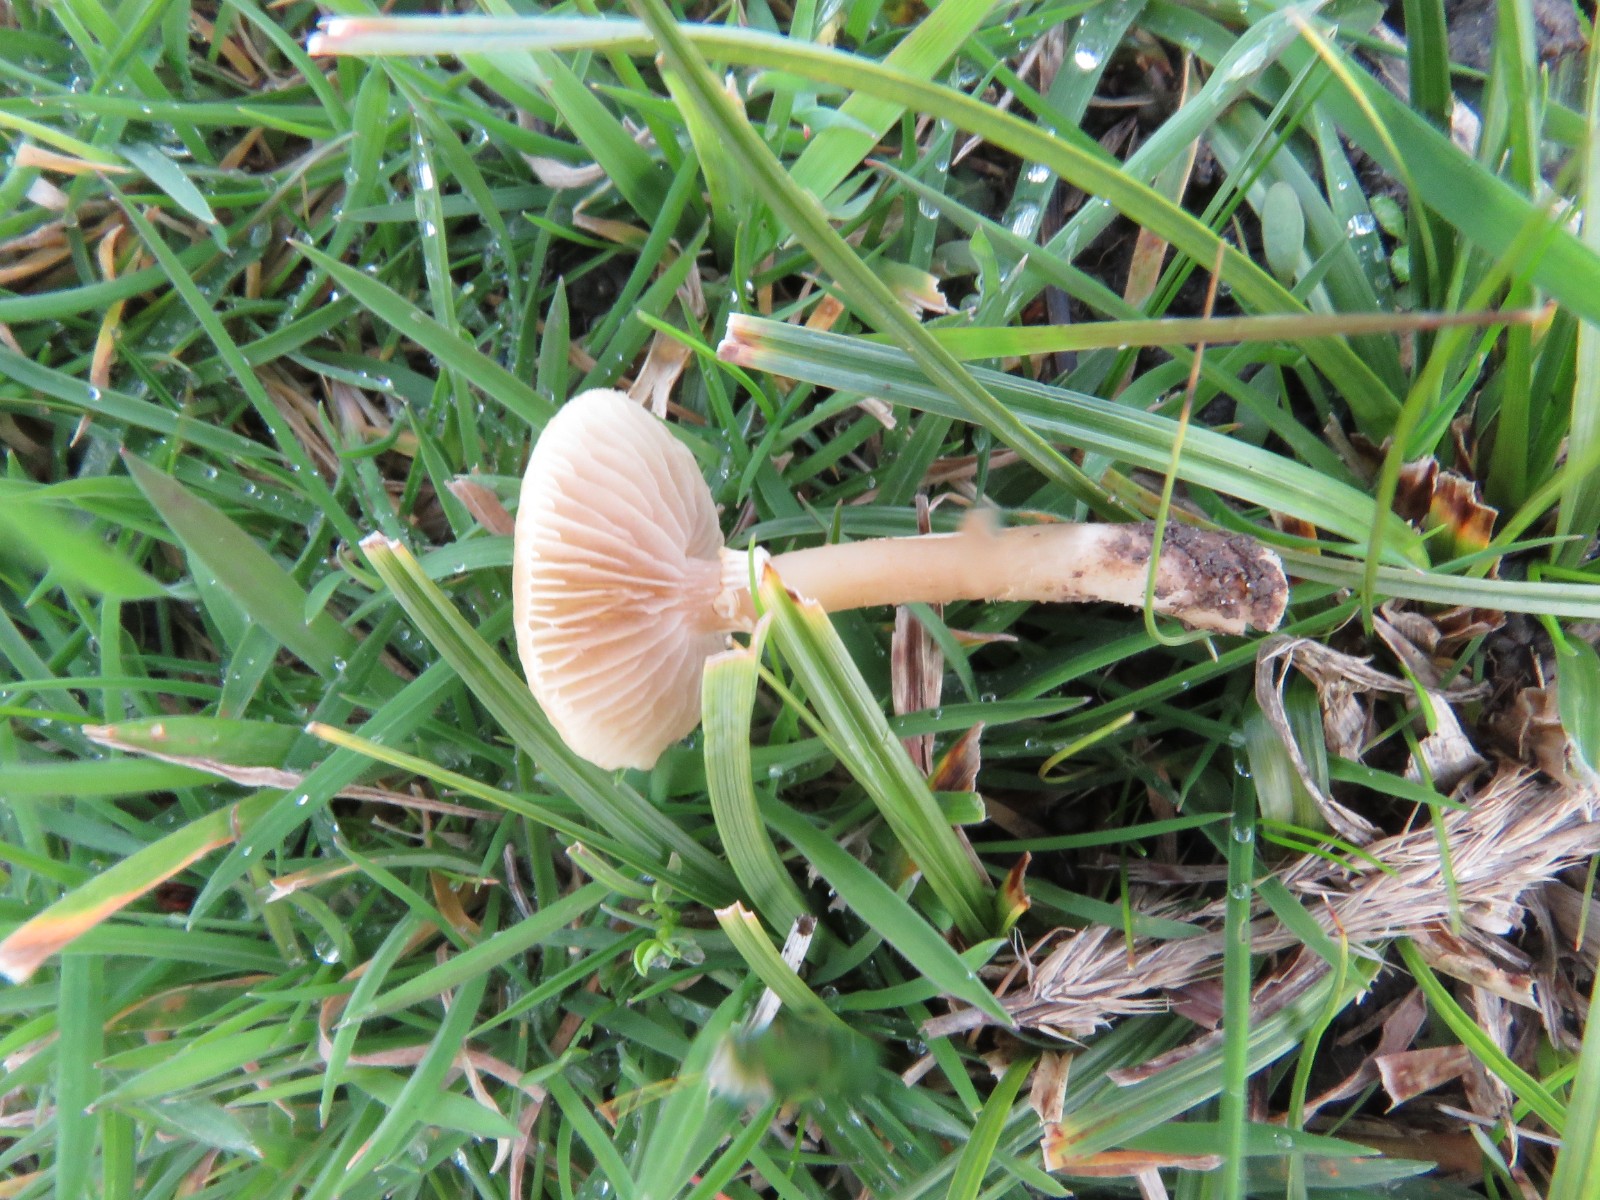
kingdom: Fungi
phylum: Basidiomycota
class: Agaricomycetes
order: Agaricales
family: Strophariaceae
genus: Agrocybe
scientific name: Agrocybe
